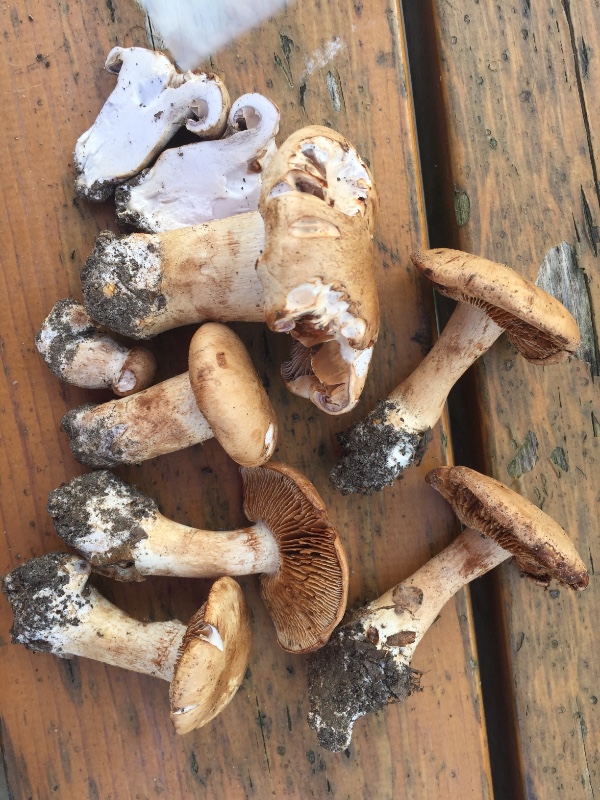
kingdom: Fungi
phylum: Basidiomycota
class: Agaricomycetes
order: Agaricales
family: Cortinariaceae
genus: Phlegmacium
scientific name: Phlegmacium brunneiaurantium
